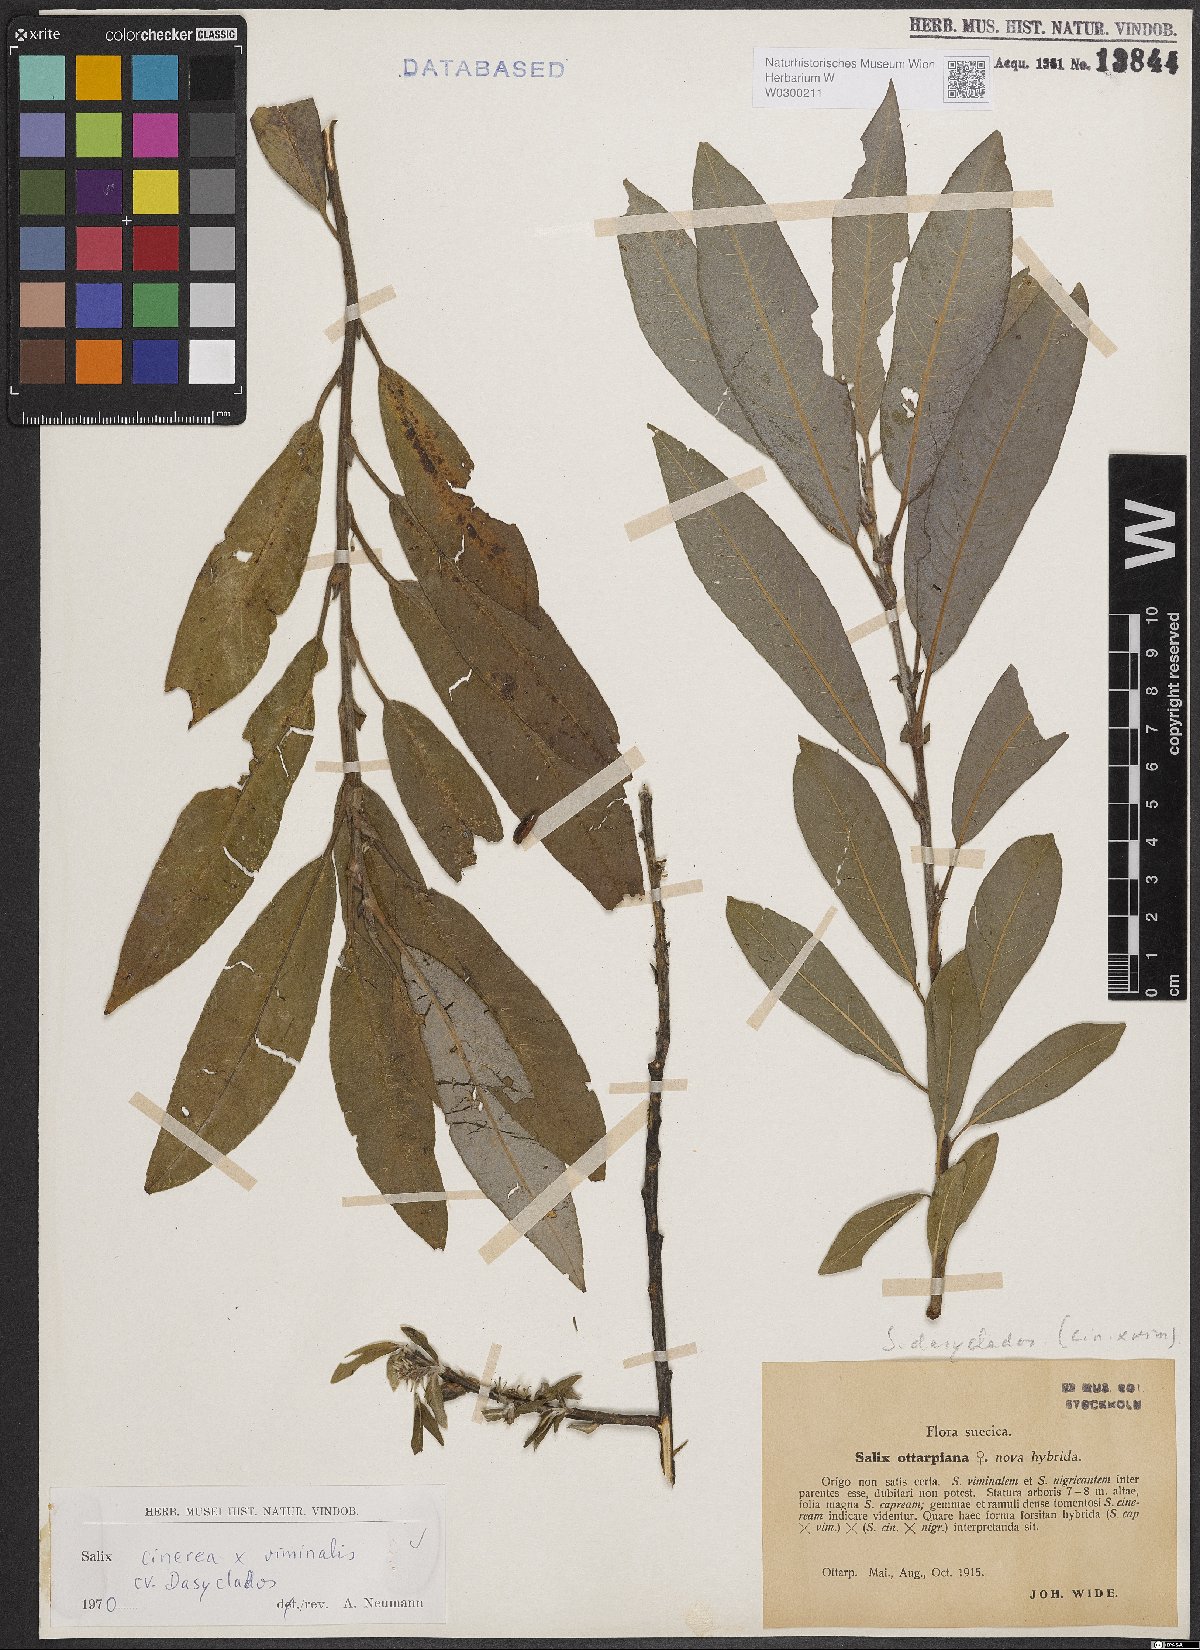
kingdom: Plantae
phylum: Tracheophyta
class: Magnoliopsida
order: Malpighiales
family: Salicaceae
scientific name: Salicaceae
